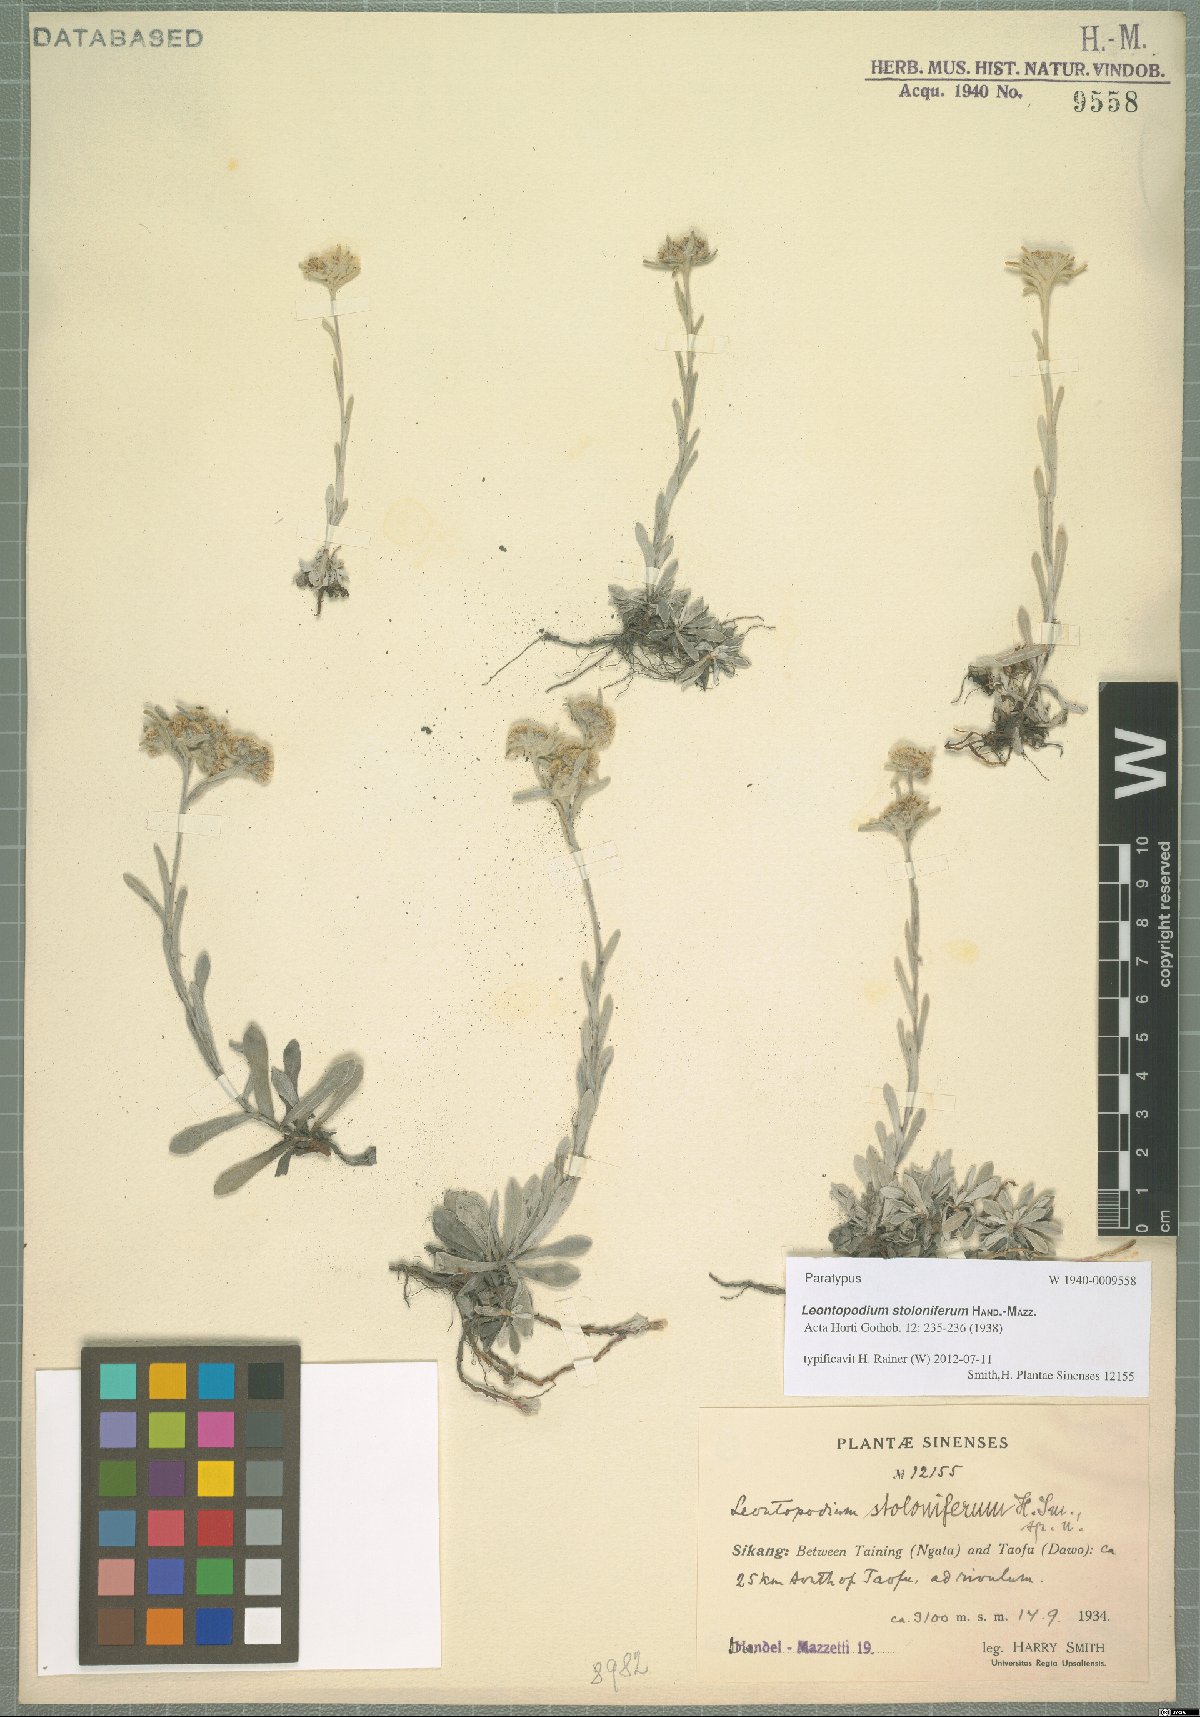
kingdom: Plantae
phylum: Tracheophyta
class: Magnoliopsida
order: Asterales
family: Asteraceae
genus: Leontopodium
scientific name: Leontopodium stoloniferum
